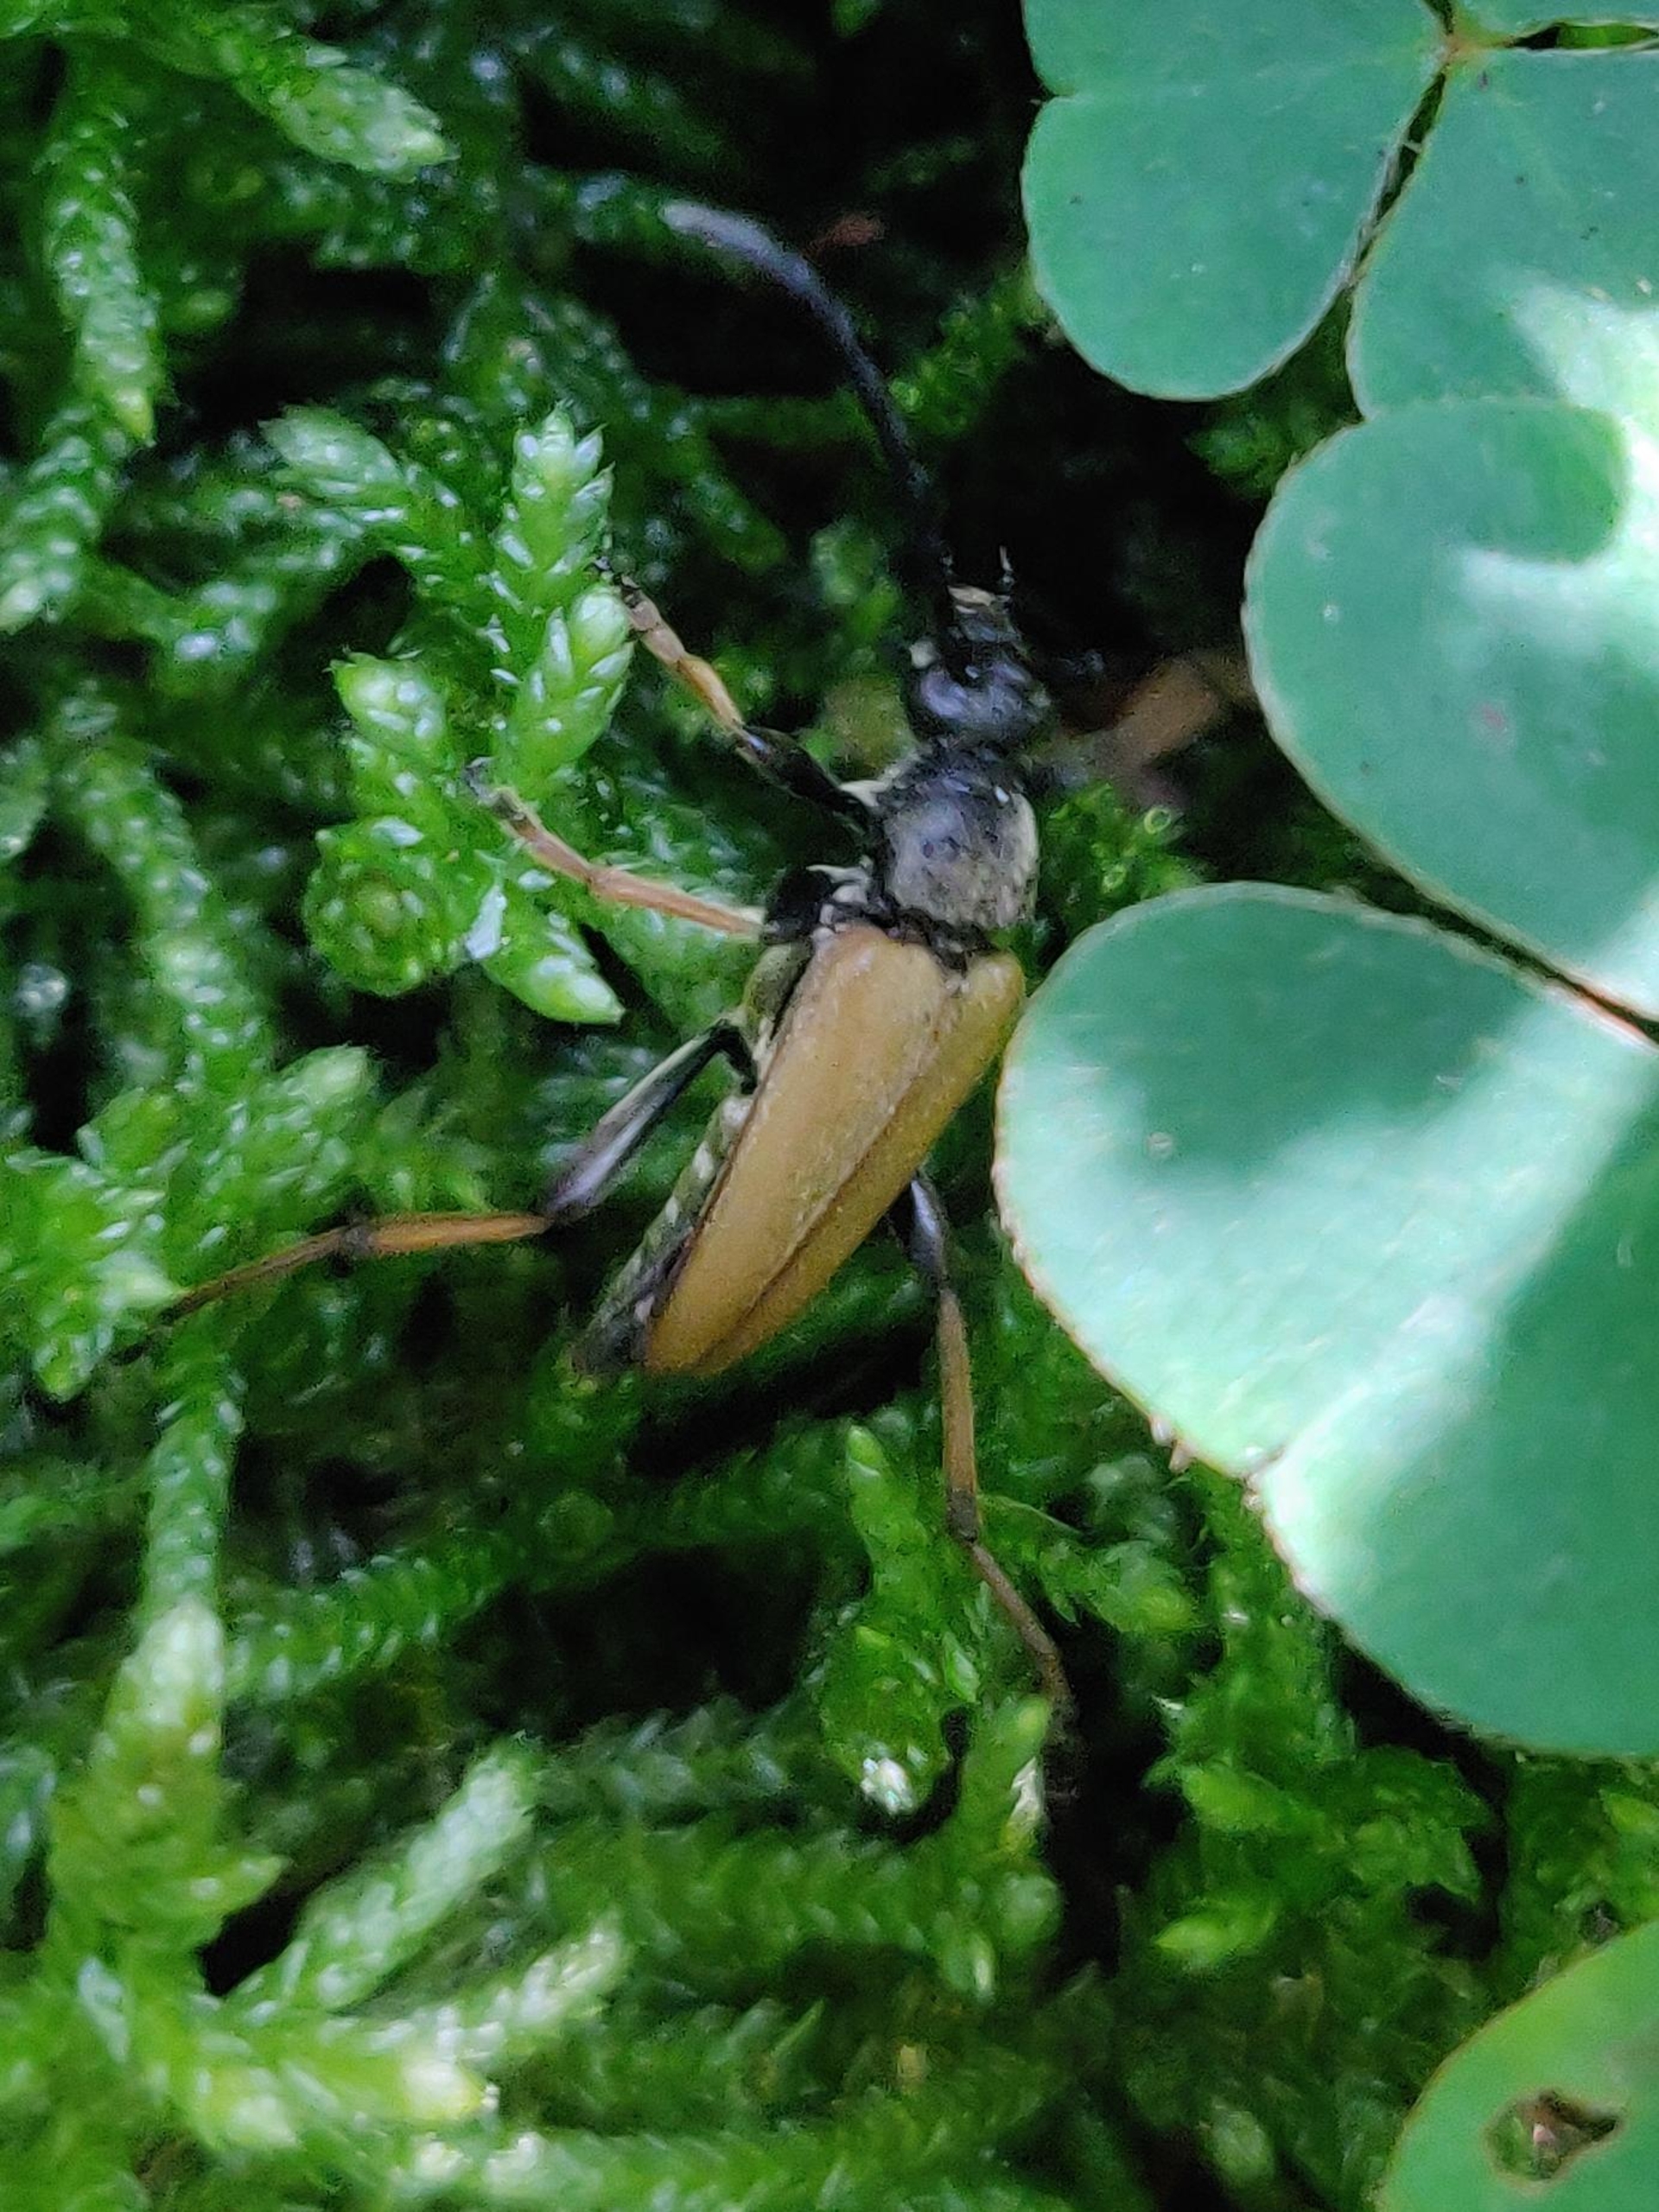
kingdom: Animalia
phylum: Arthropoda
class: Insecta
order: Coleoptera
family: Cerambycidae
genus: Stictoleptura
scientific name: Stictoleptura rubra
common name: Rød blomsterbuk
